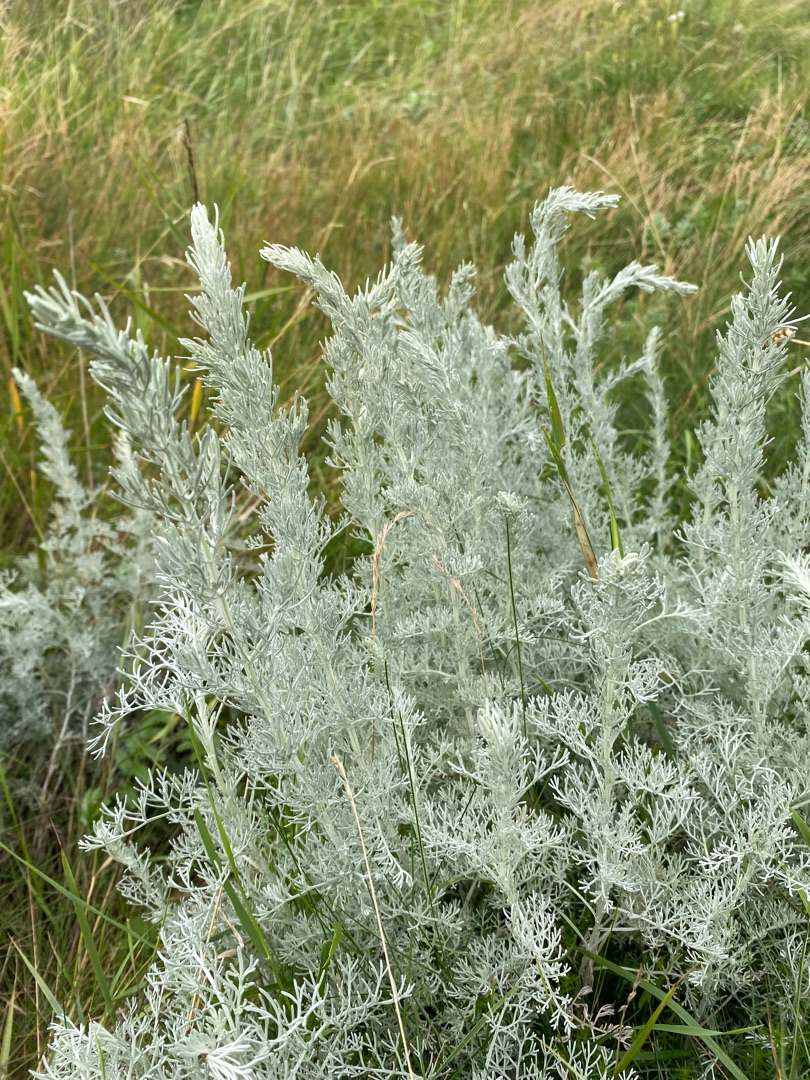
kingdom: Plantae
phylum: Tracheophyta
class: Magnoliopsida
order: Asterales
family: Asteraceae
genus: Artemisia
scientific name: Artemisia maritima
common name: Strandmalurt
